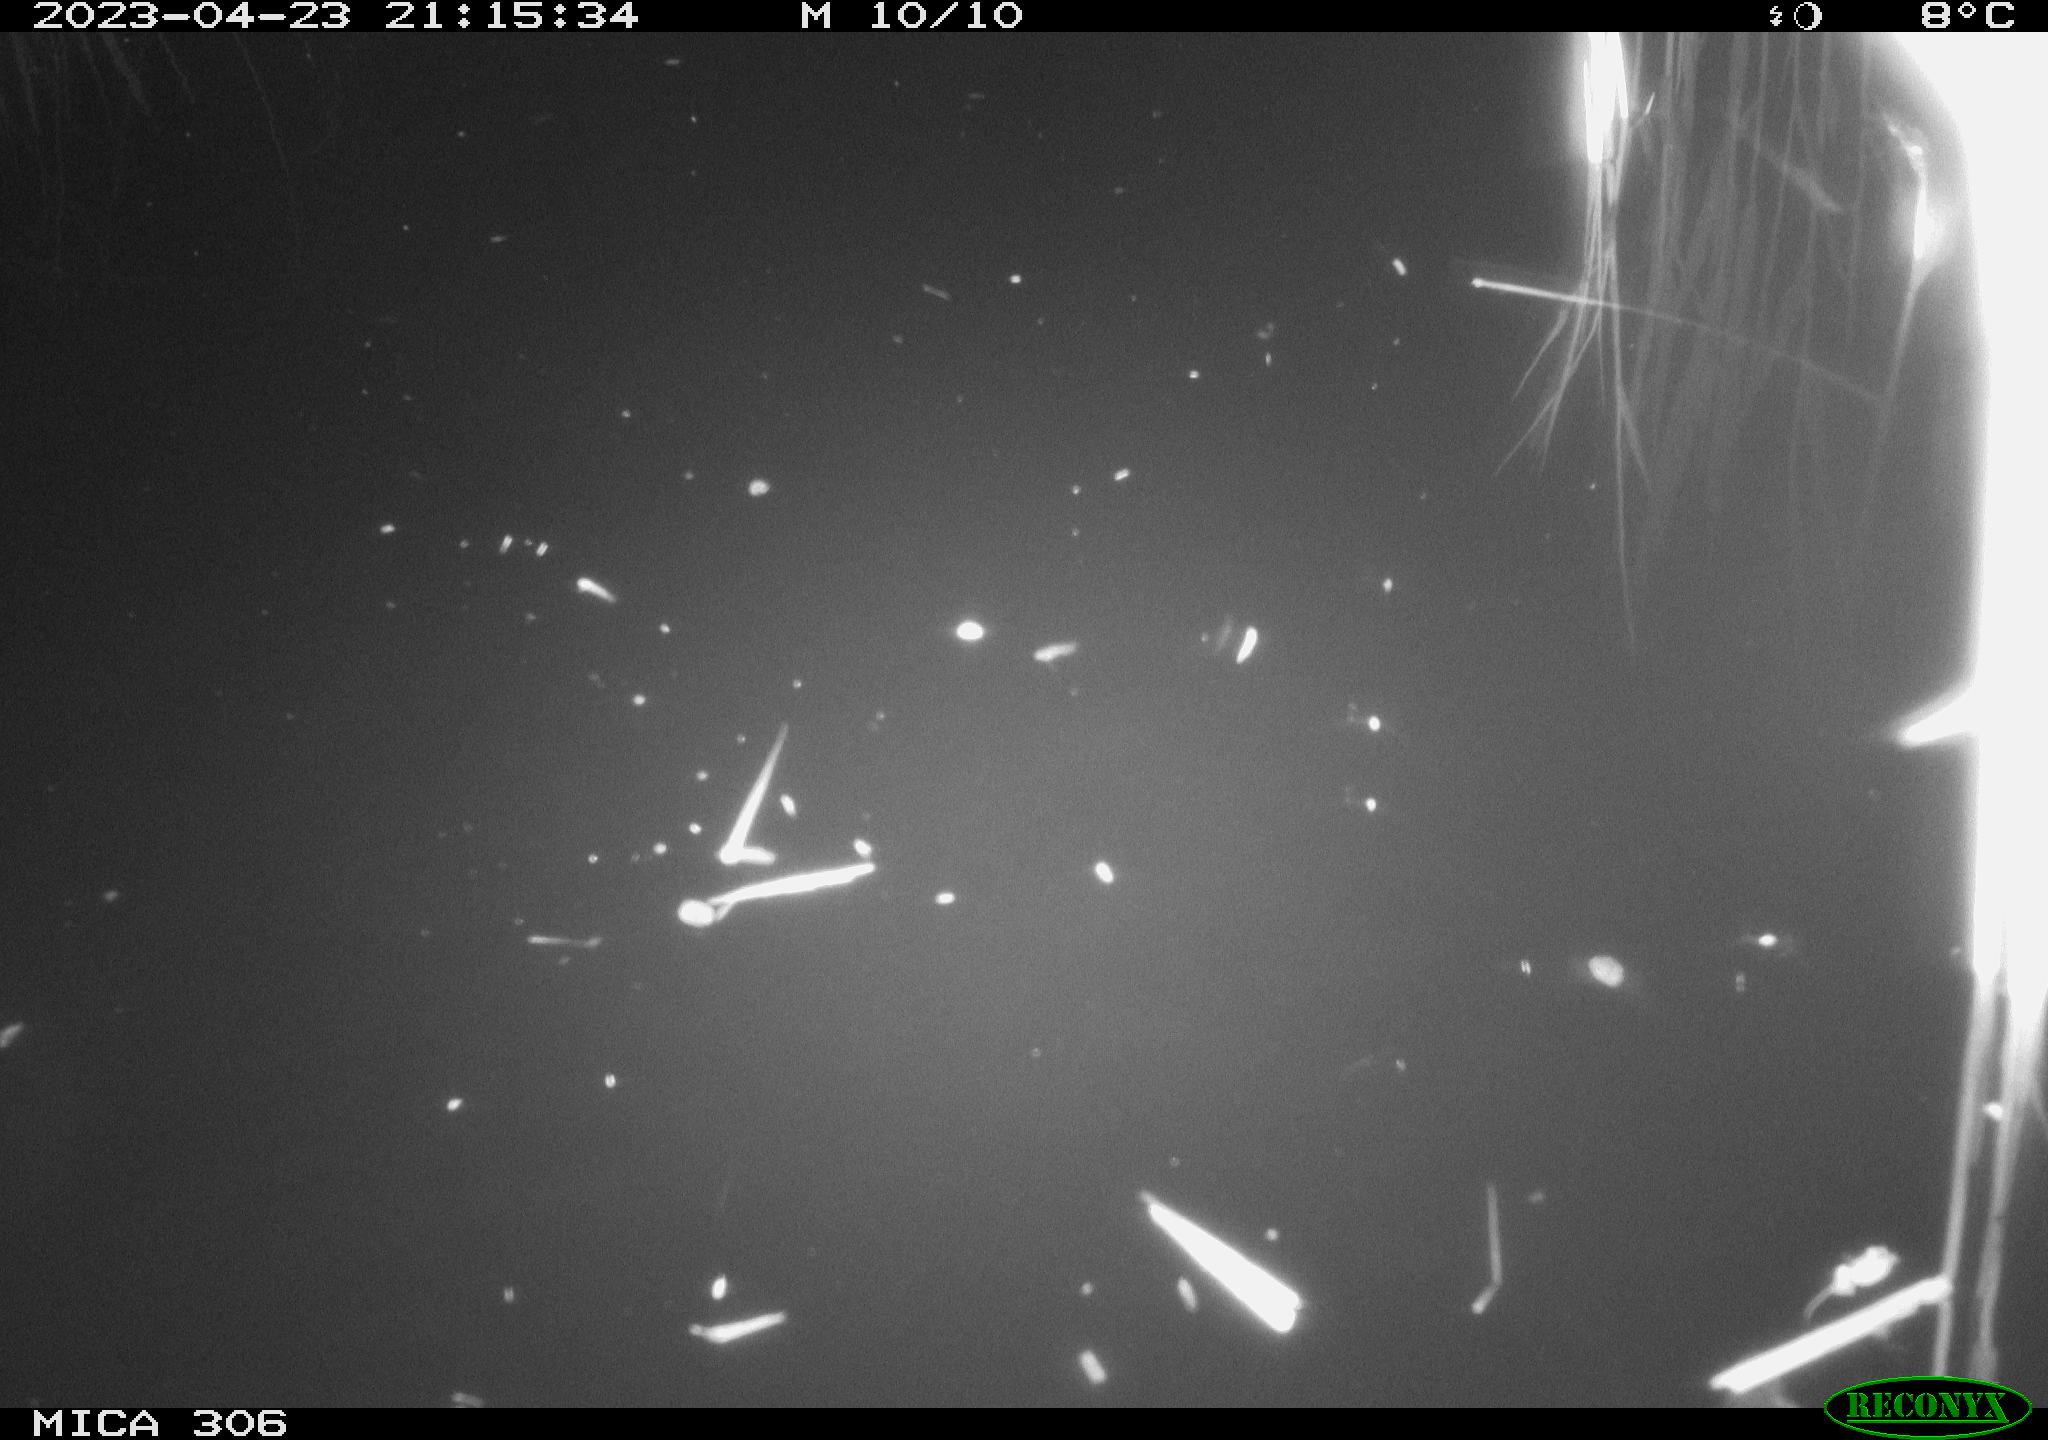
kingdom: Animalia
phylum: Chordata
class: Aves
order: Anseriformes
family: Anatidae
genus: Anas
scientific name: Anas
